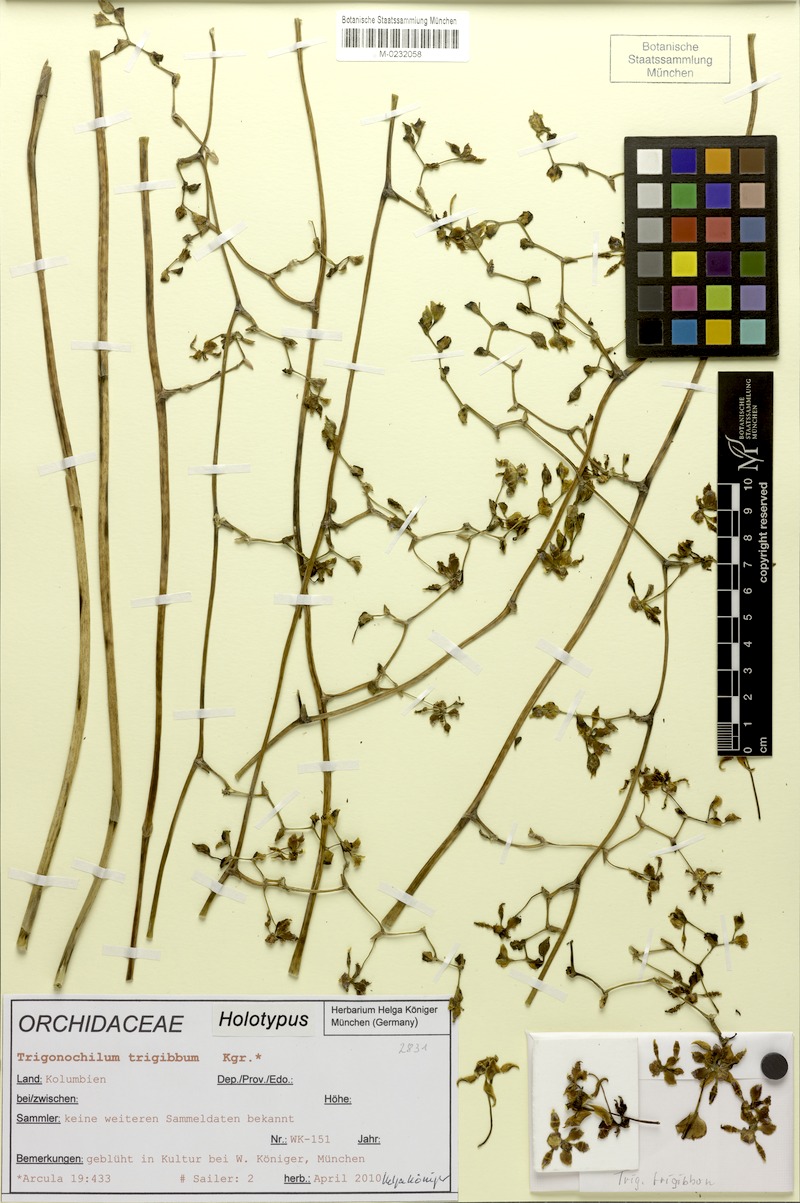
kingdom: Plantae
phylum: Tracheophyta
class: Liliopsida
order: Asparagales
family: Orchidaceae
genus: Cyrtochilum
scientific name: Cyrtochilum trigibbum
